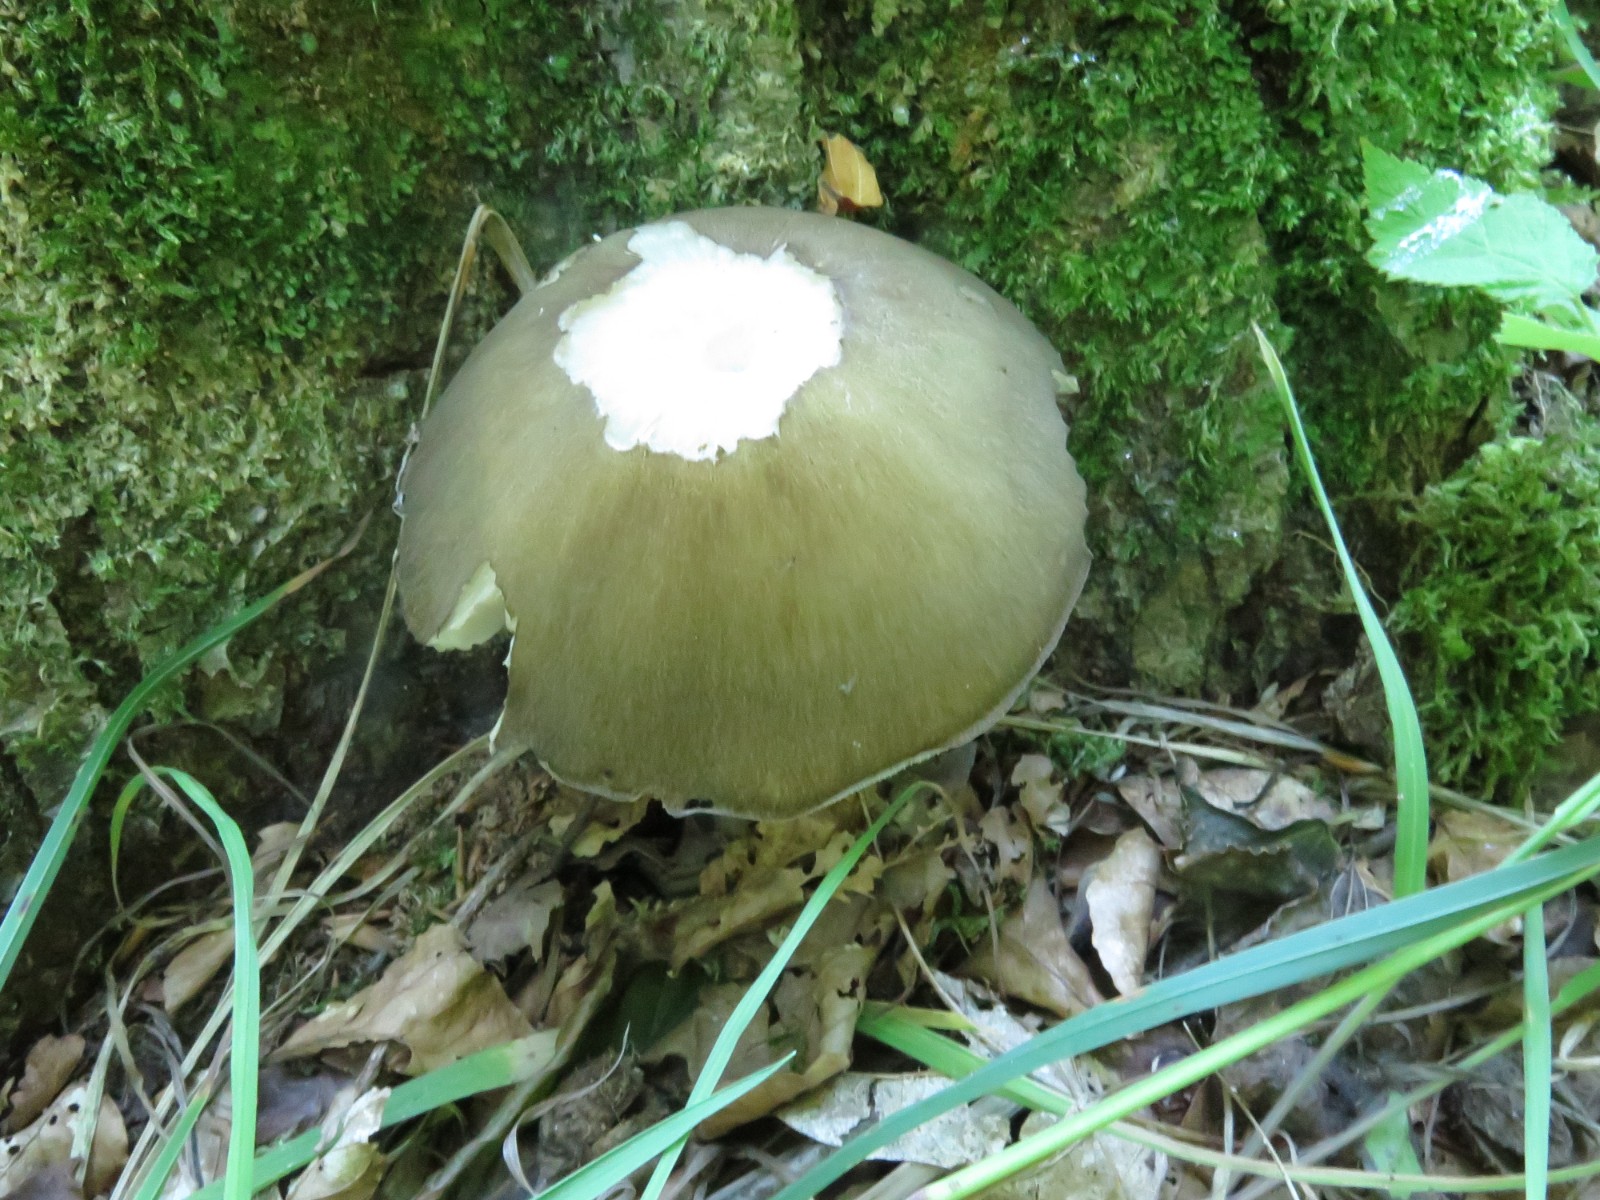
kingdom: Fungi
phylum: Basidiomycota
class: Agaricomycetes
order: Agaricales
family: Tricholomataceae
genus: Megacollybia
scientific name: Megacollybia platyphylla
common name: bredbladet væbnerhat
